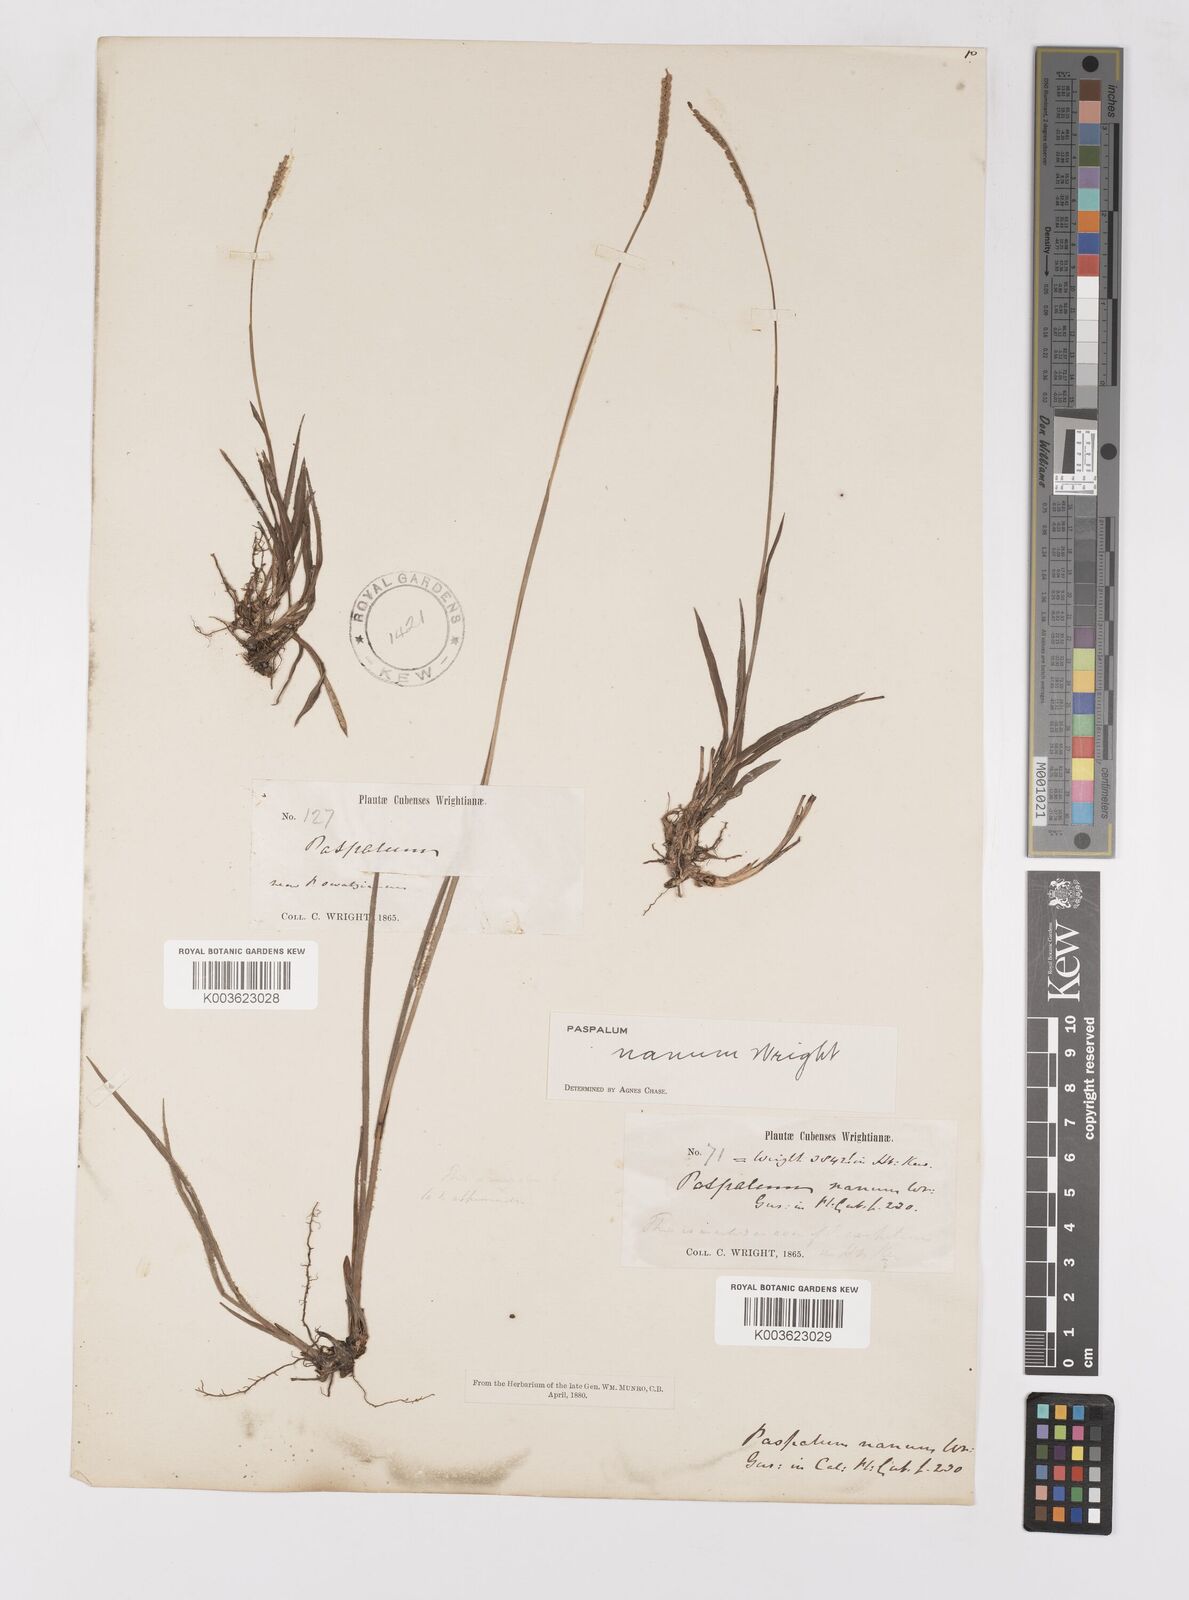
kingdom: Plantae
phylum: Tracheophyta
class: Liliopsida
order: Poales
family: Poaceae
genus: Paspalum
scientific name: Paspalum nanum
